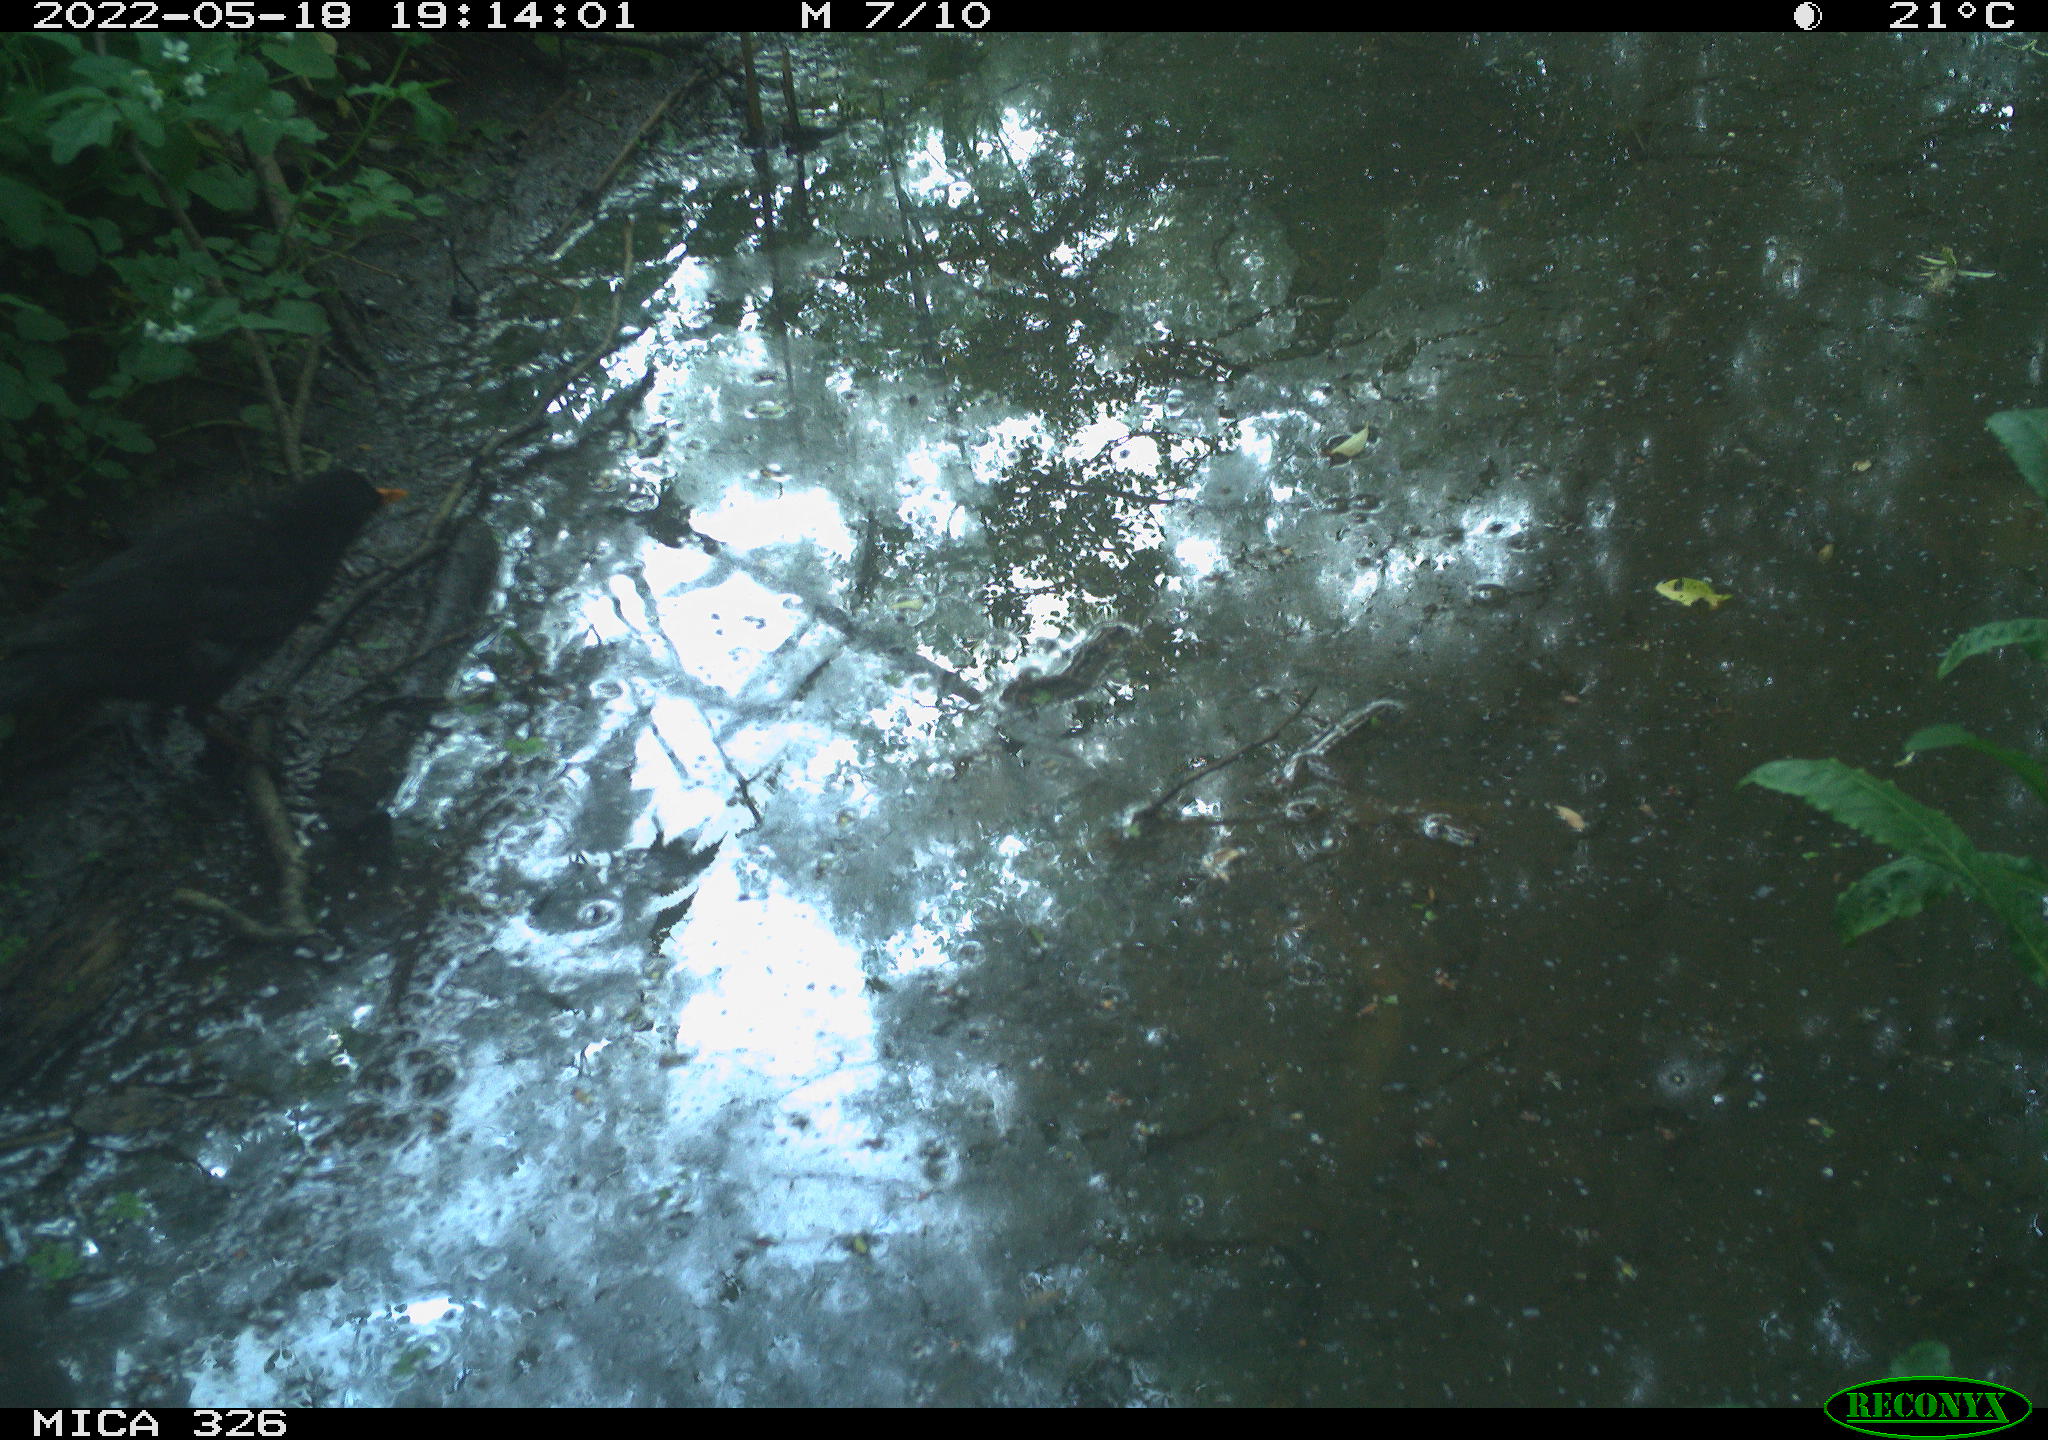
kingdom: Animalia
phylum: Chordata
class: Aves
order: Passeriformes
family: Turdidae
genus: Turdus
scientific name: Turdus merula
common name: Common blackbird
